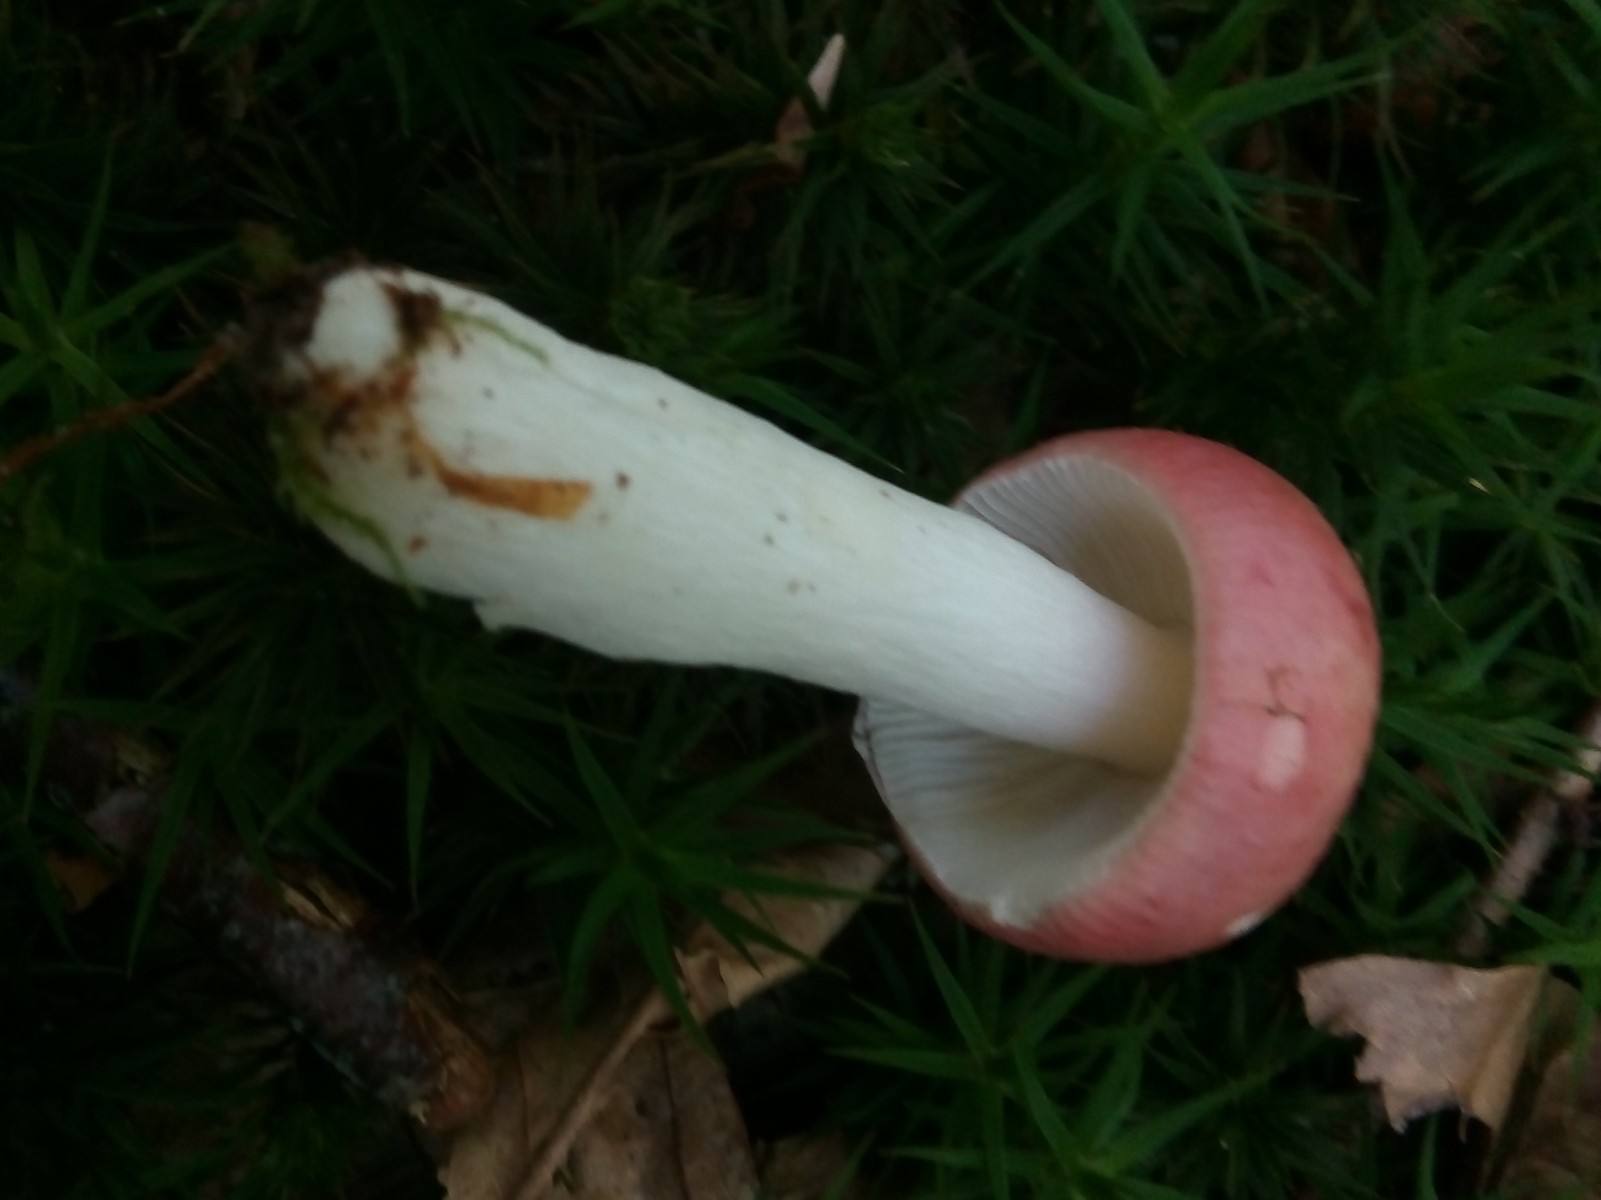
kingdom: Fungi
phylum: Basidiomycota
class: Agaricomycetes
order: Russulales
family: Russulaceae
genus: Russula
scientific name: Russula nobilis
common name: lille gift-skørhat
